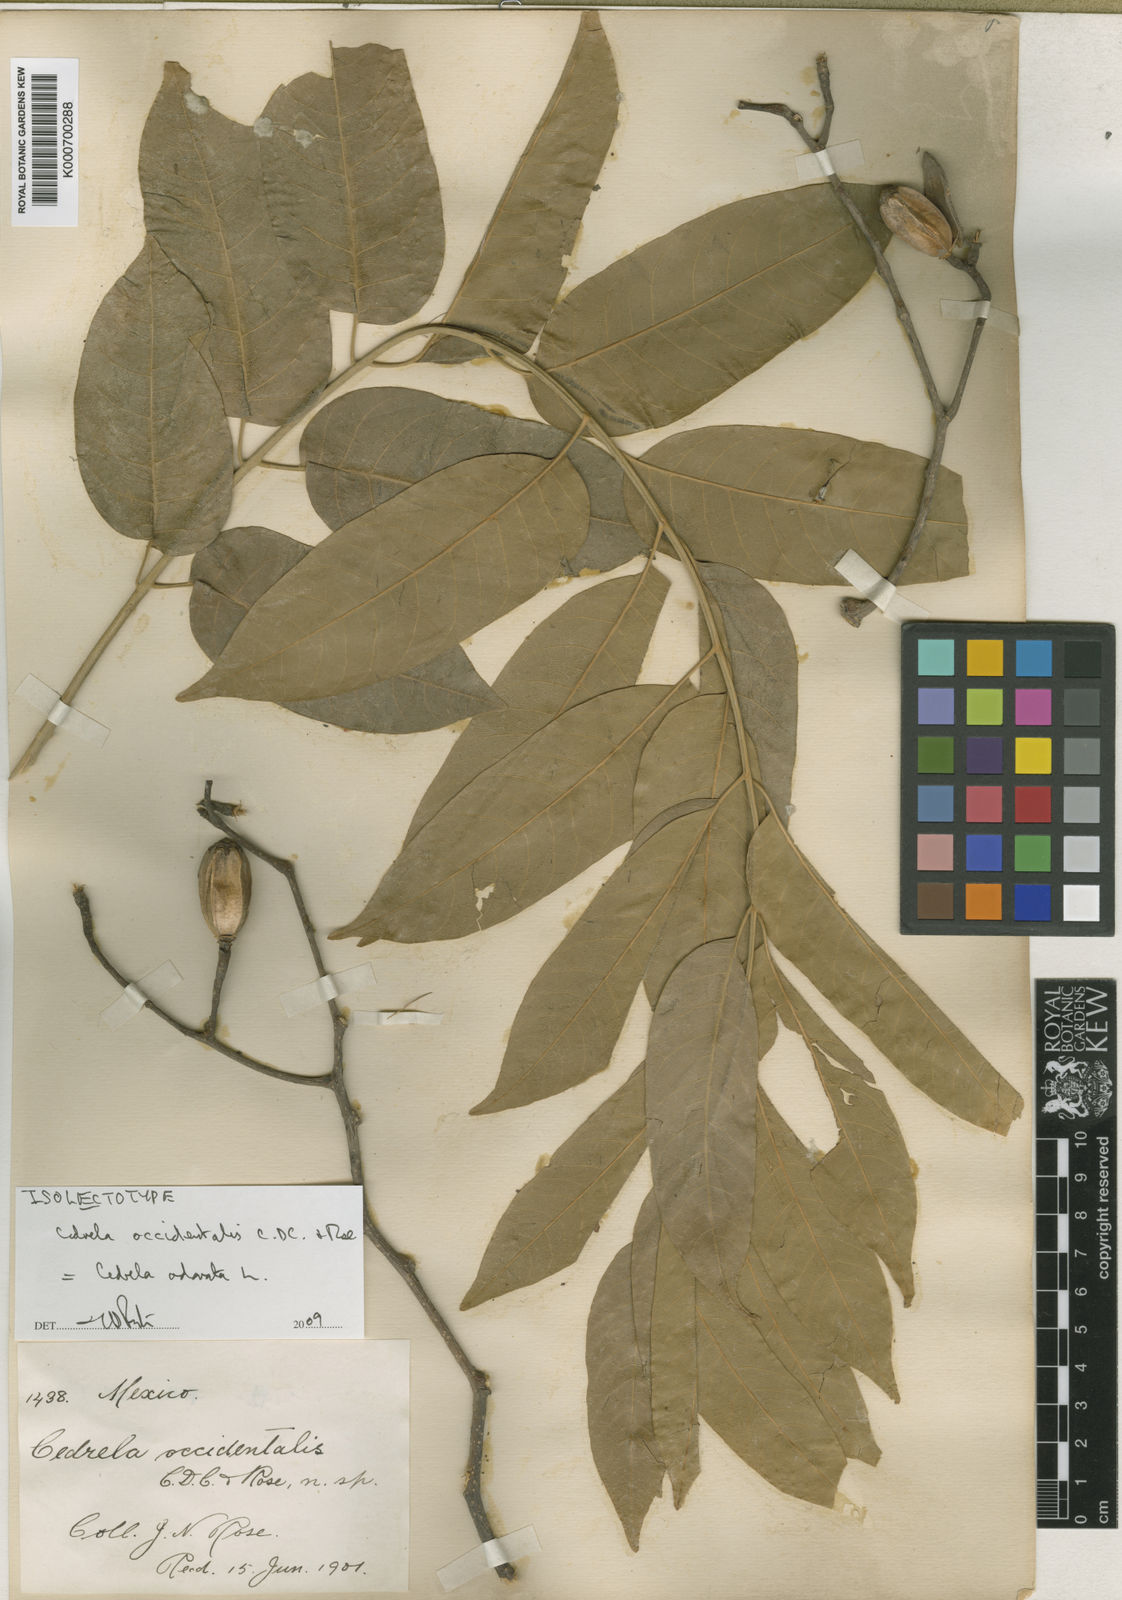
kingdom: Plantae
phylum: Tracheophyta
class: Magnoliopsida
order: Sapindales
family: Meliaceae
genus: Cedrela
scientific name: Cedrela odorata
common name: Red cedar
